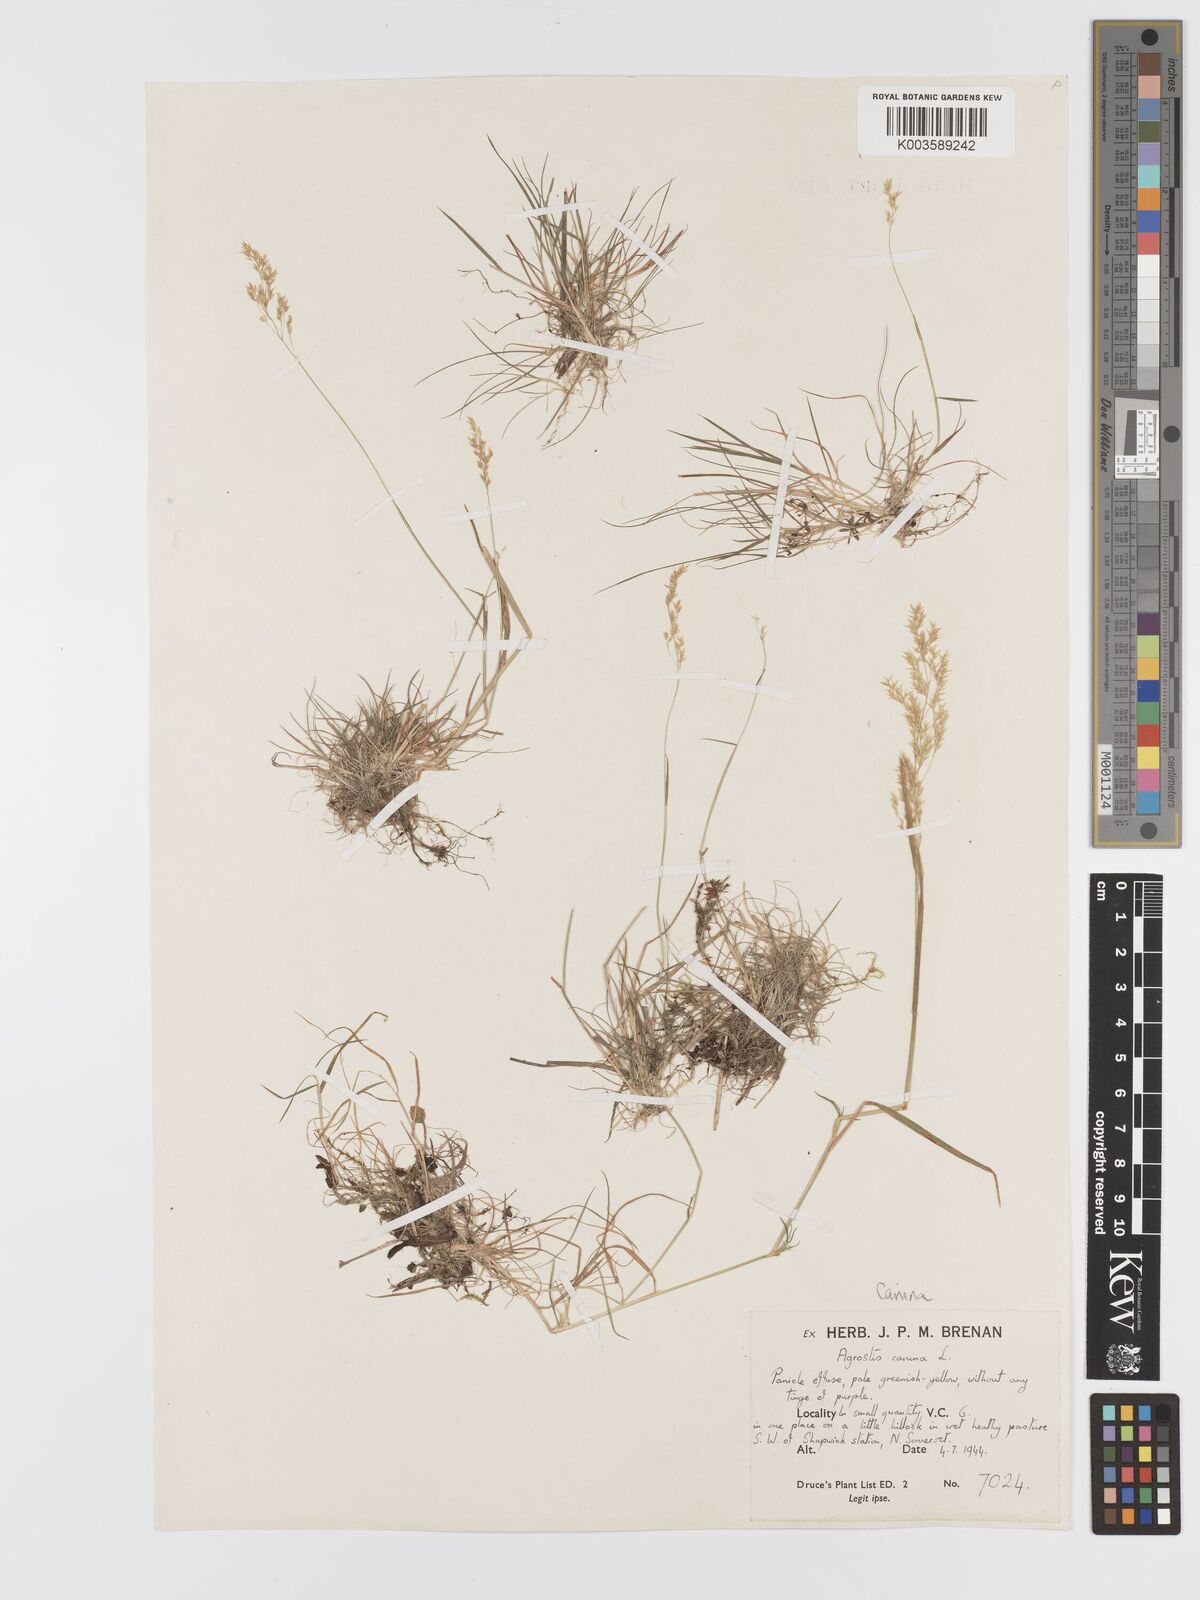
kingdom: Plantae
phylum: Tracheophyta
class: Liliopsida
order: Poales
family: Poaceae
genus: Agrostis
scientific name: Agrostis canina
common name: Velvet bent
